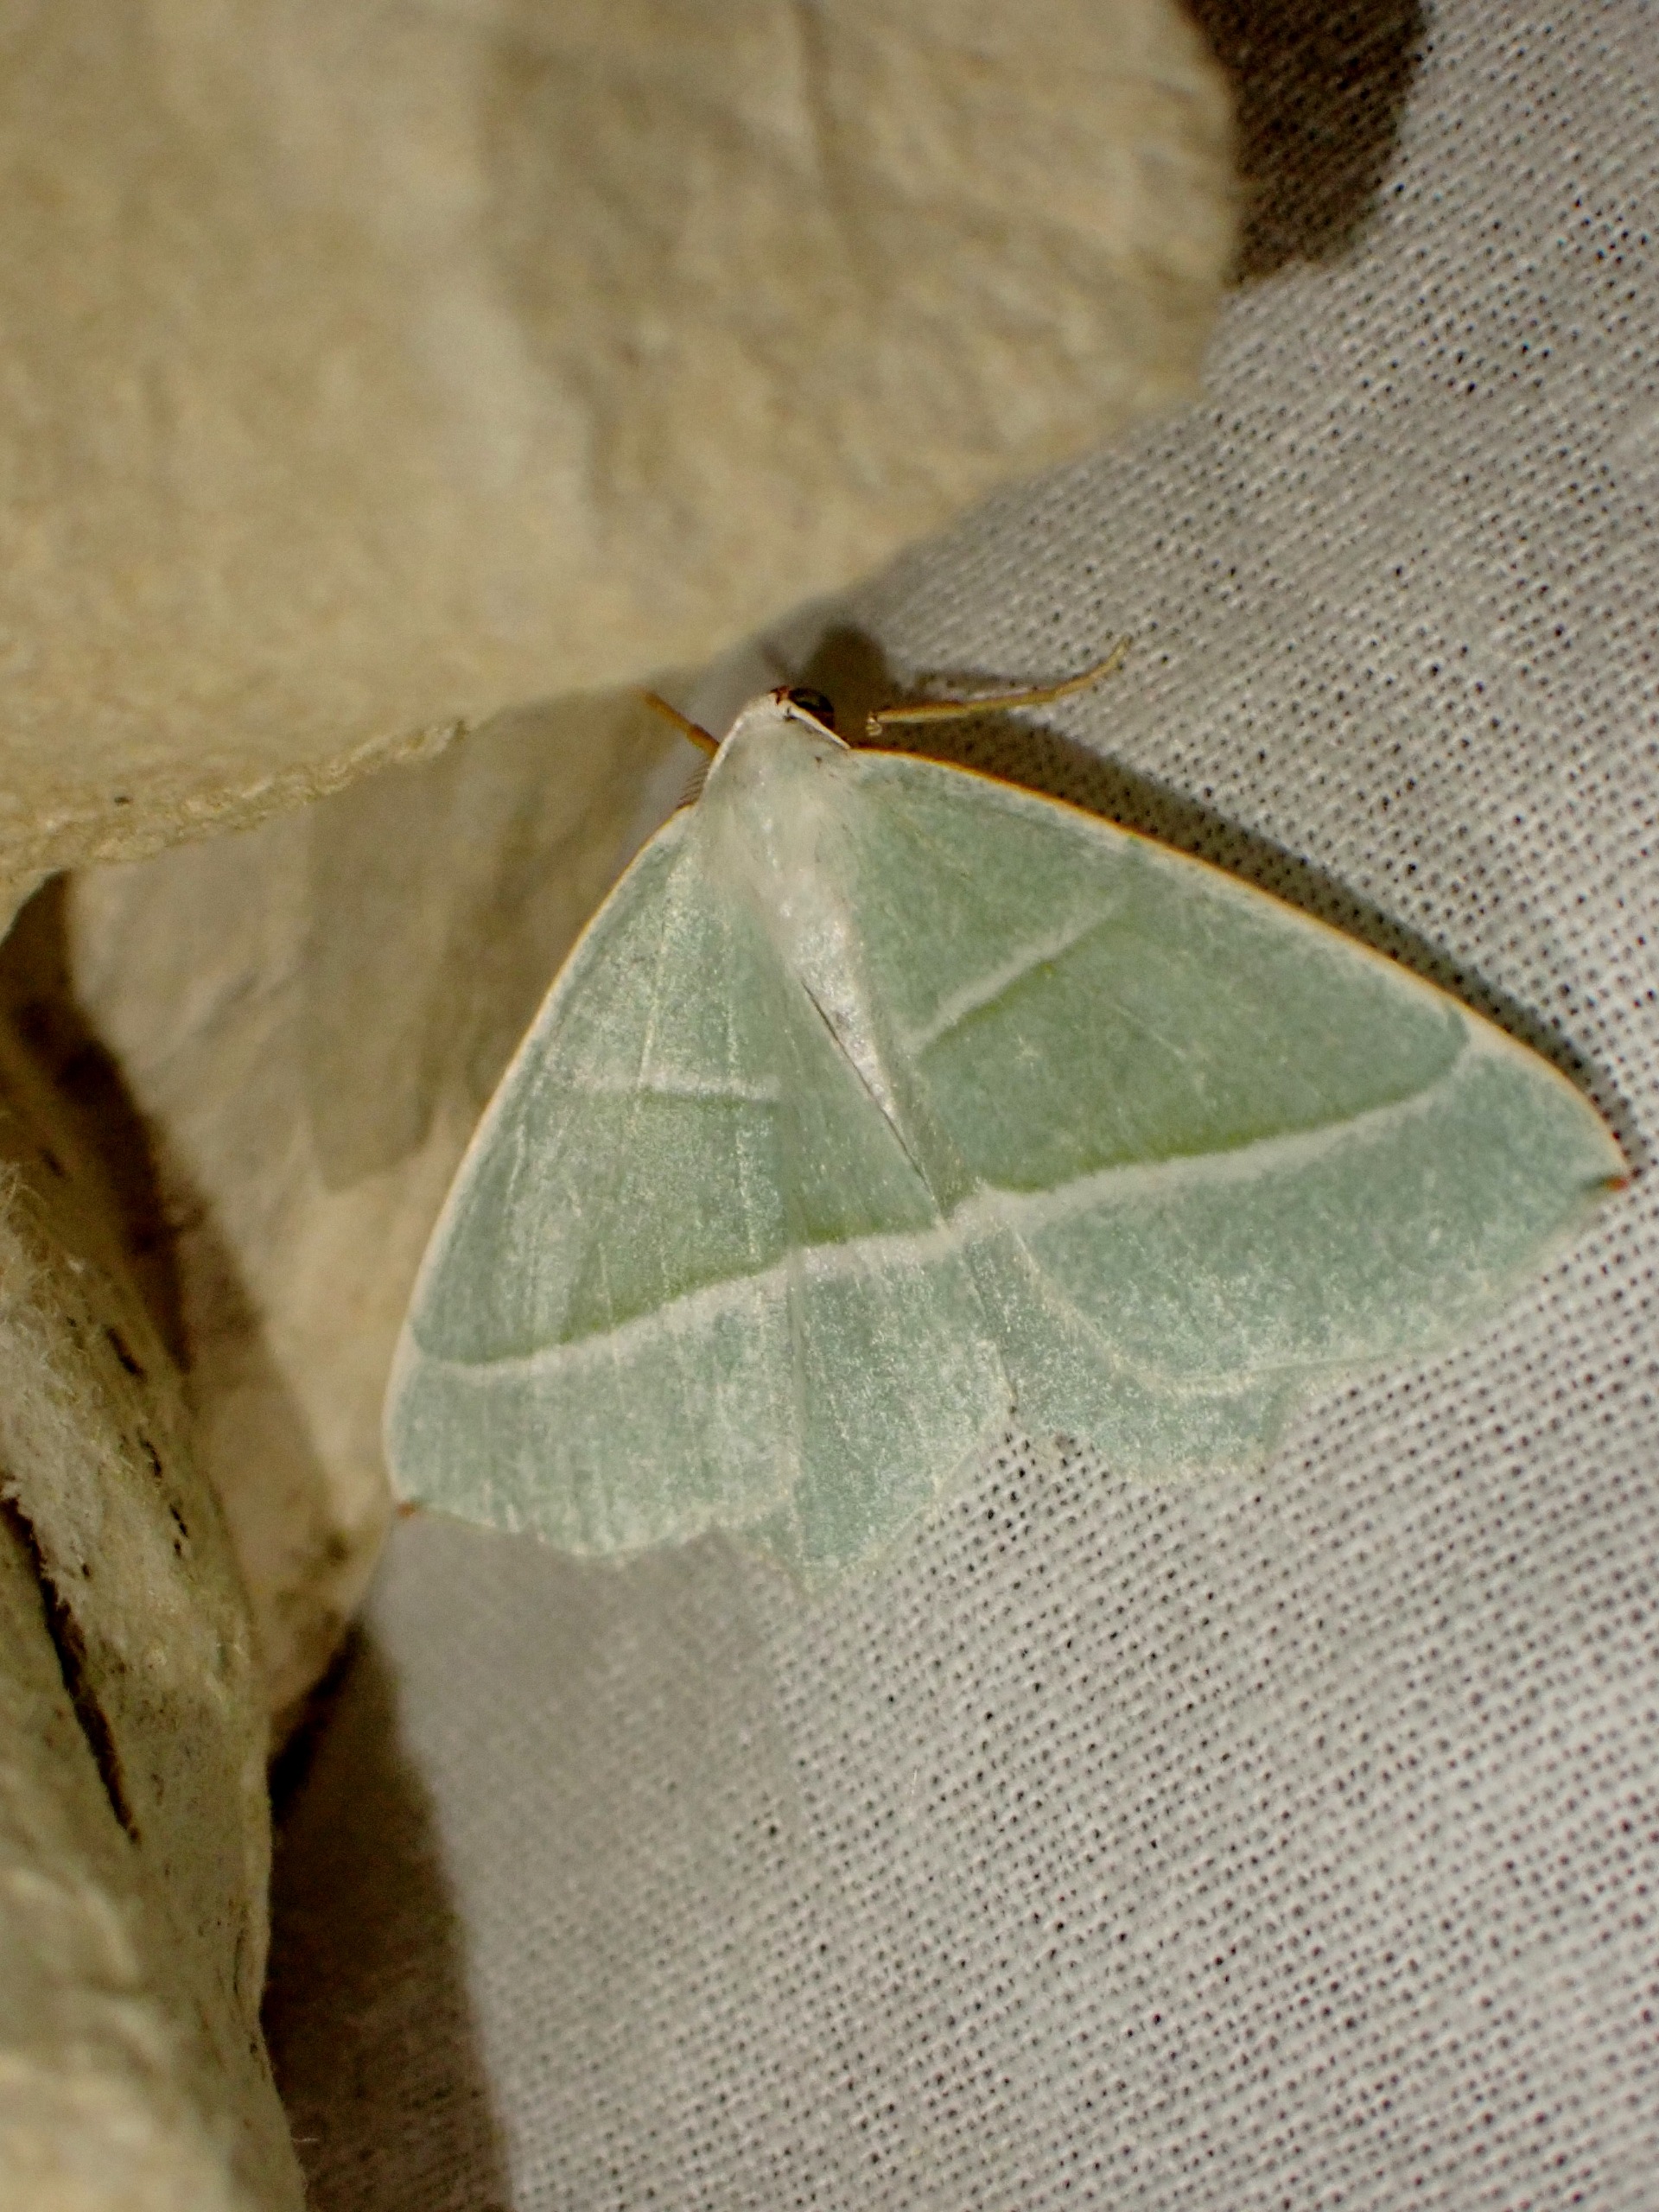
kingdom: Animalia
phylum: Arthropoda
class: Insecta
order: Lepidoptera
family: Geometridae
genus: Campaea
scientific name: Campaea margaritaria
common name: Perlemåler
